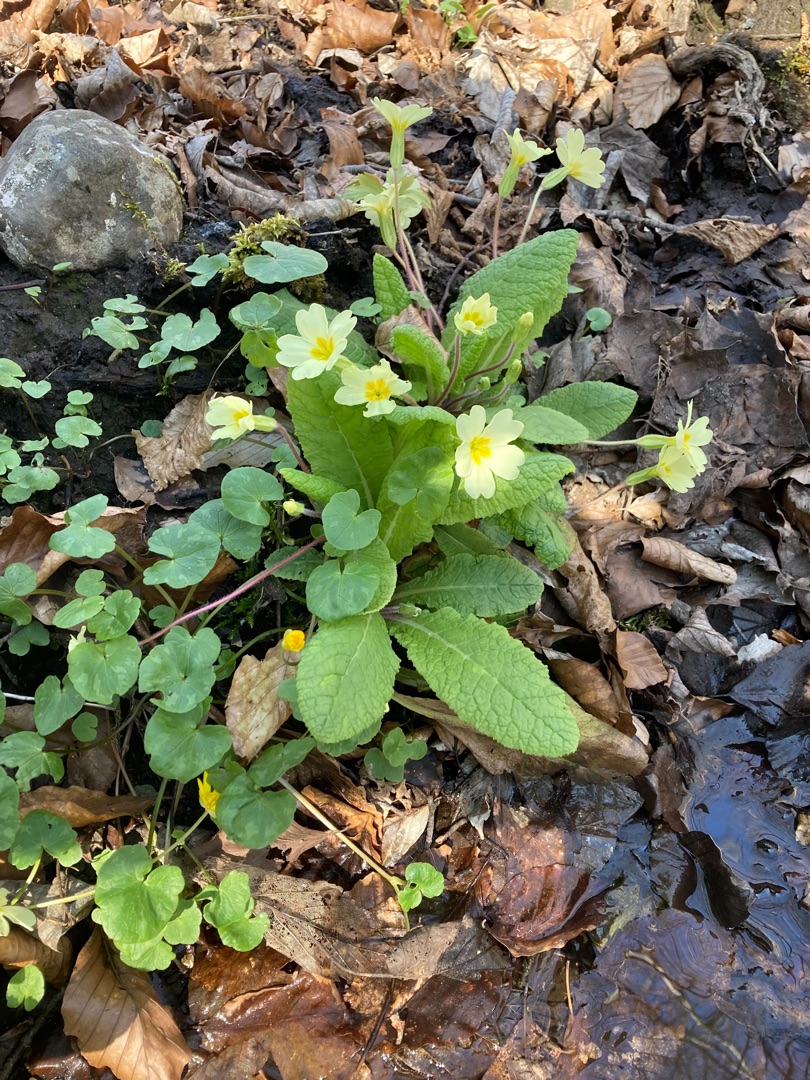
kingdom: Plantae
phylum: Tracheophyta
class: Magnoliopsida
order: Ericales
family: Primulaceae
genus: Primula
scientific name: Primula vulgaris
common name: Storblomstret kodriver
